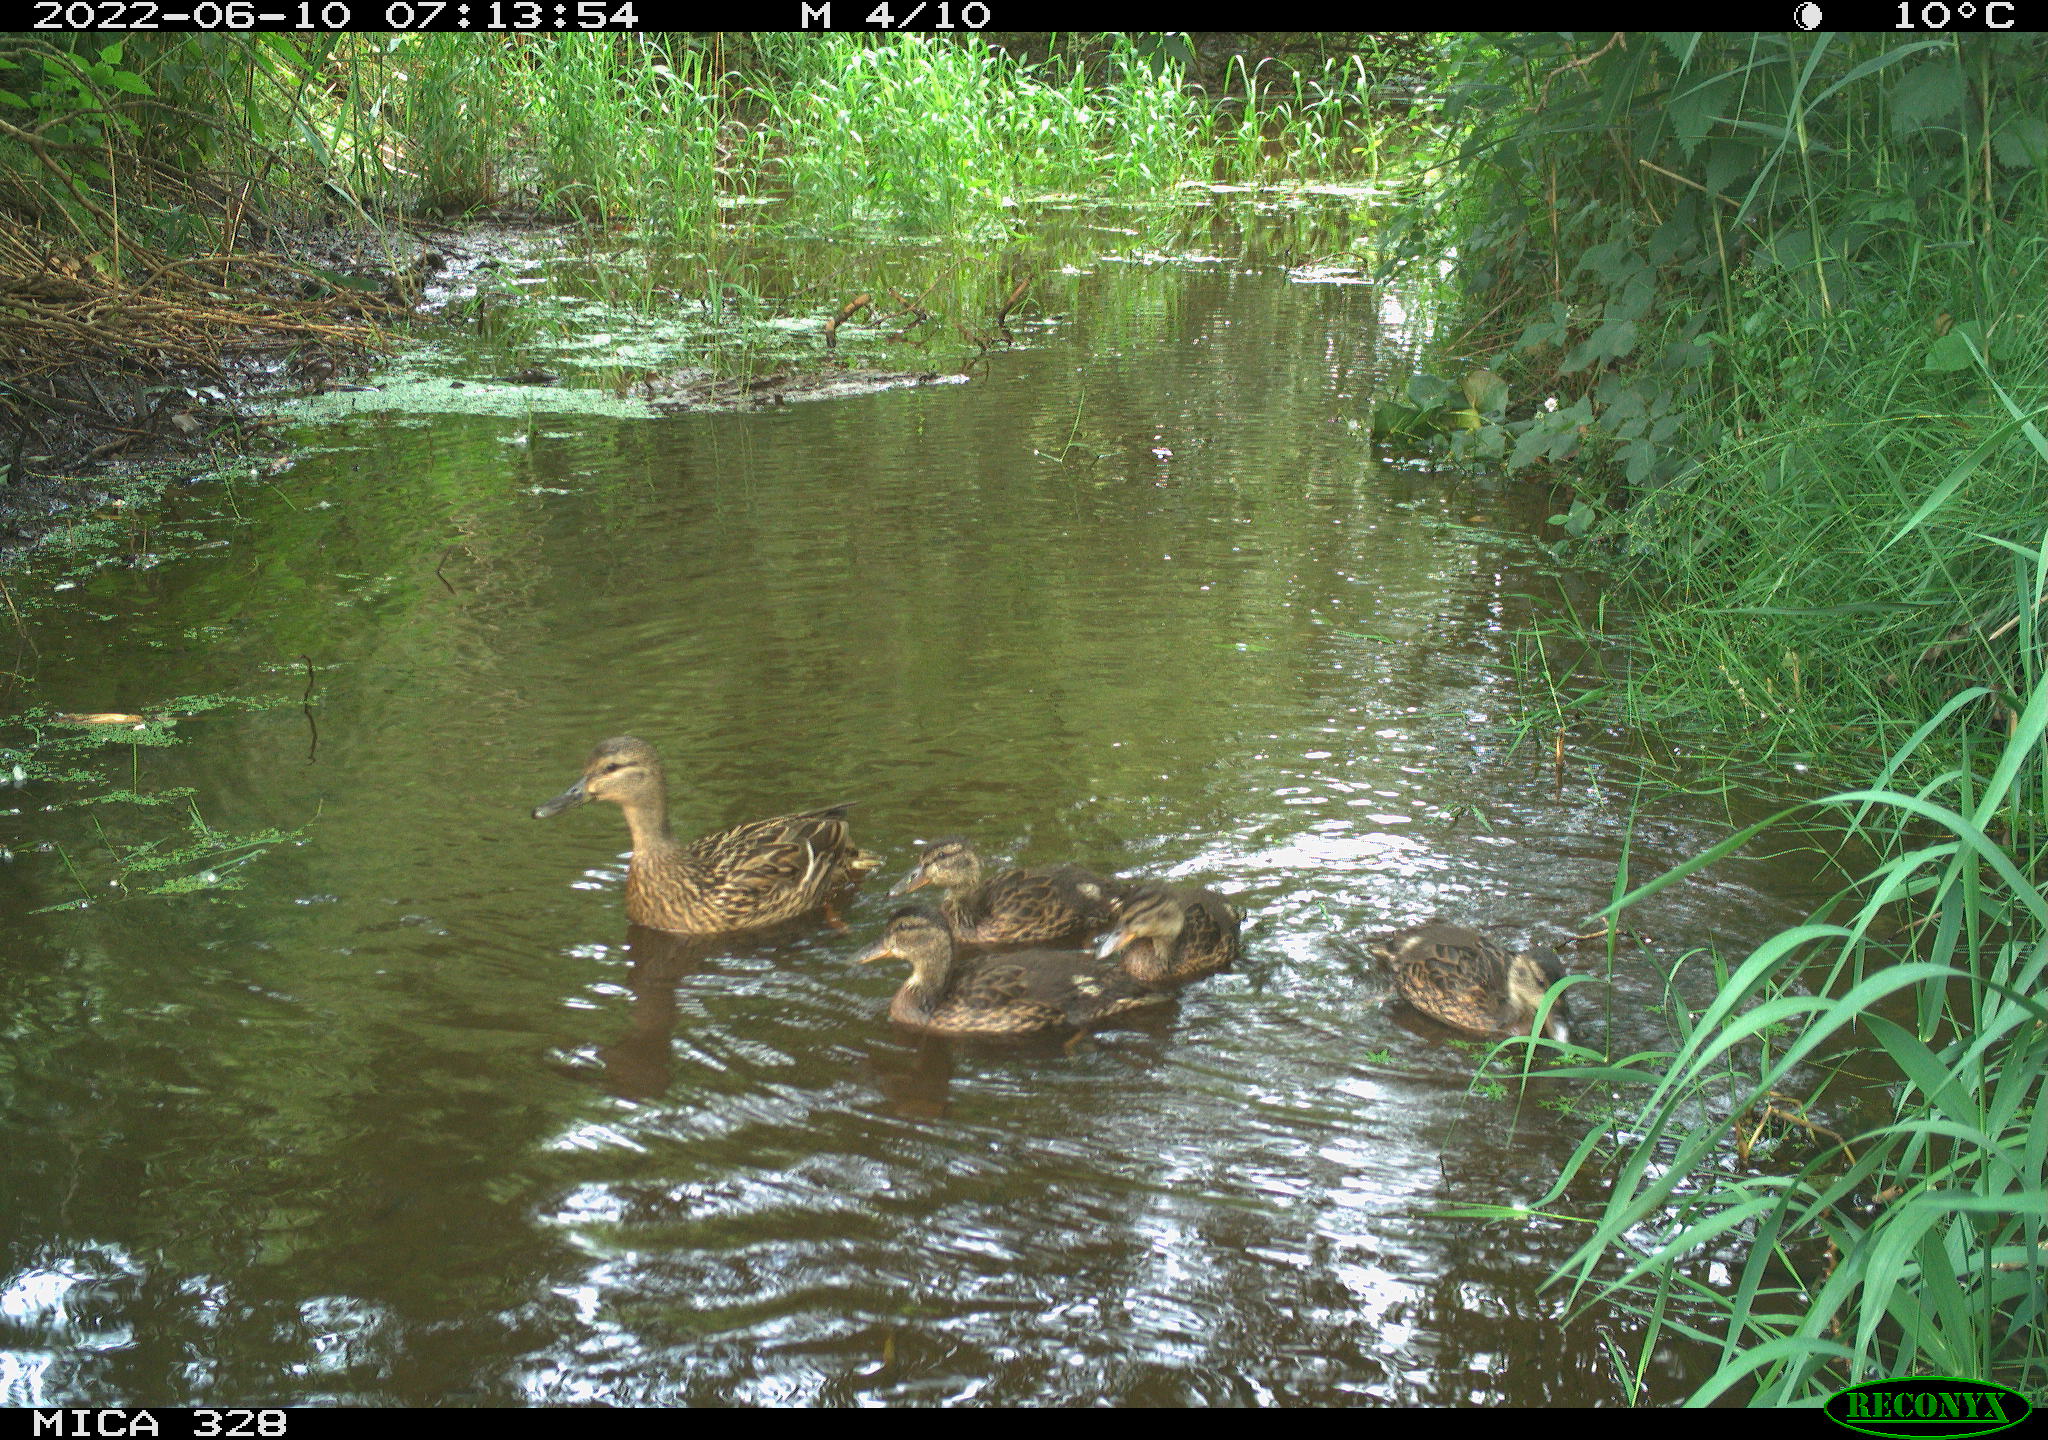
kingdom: Animalia
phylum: Chordata
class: Aves
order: Anseriformes
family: Anatidae
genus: Anas
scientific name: Anas
